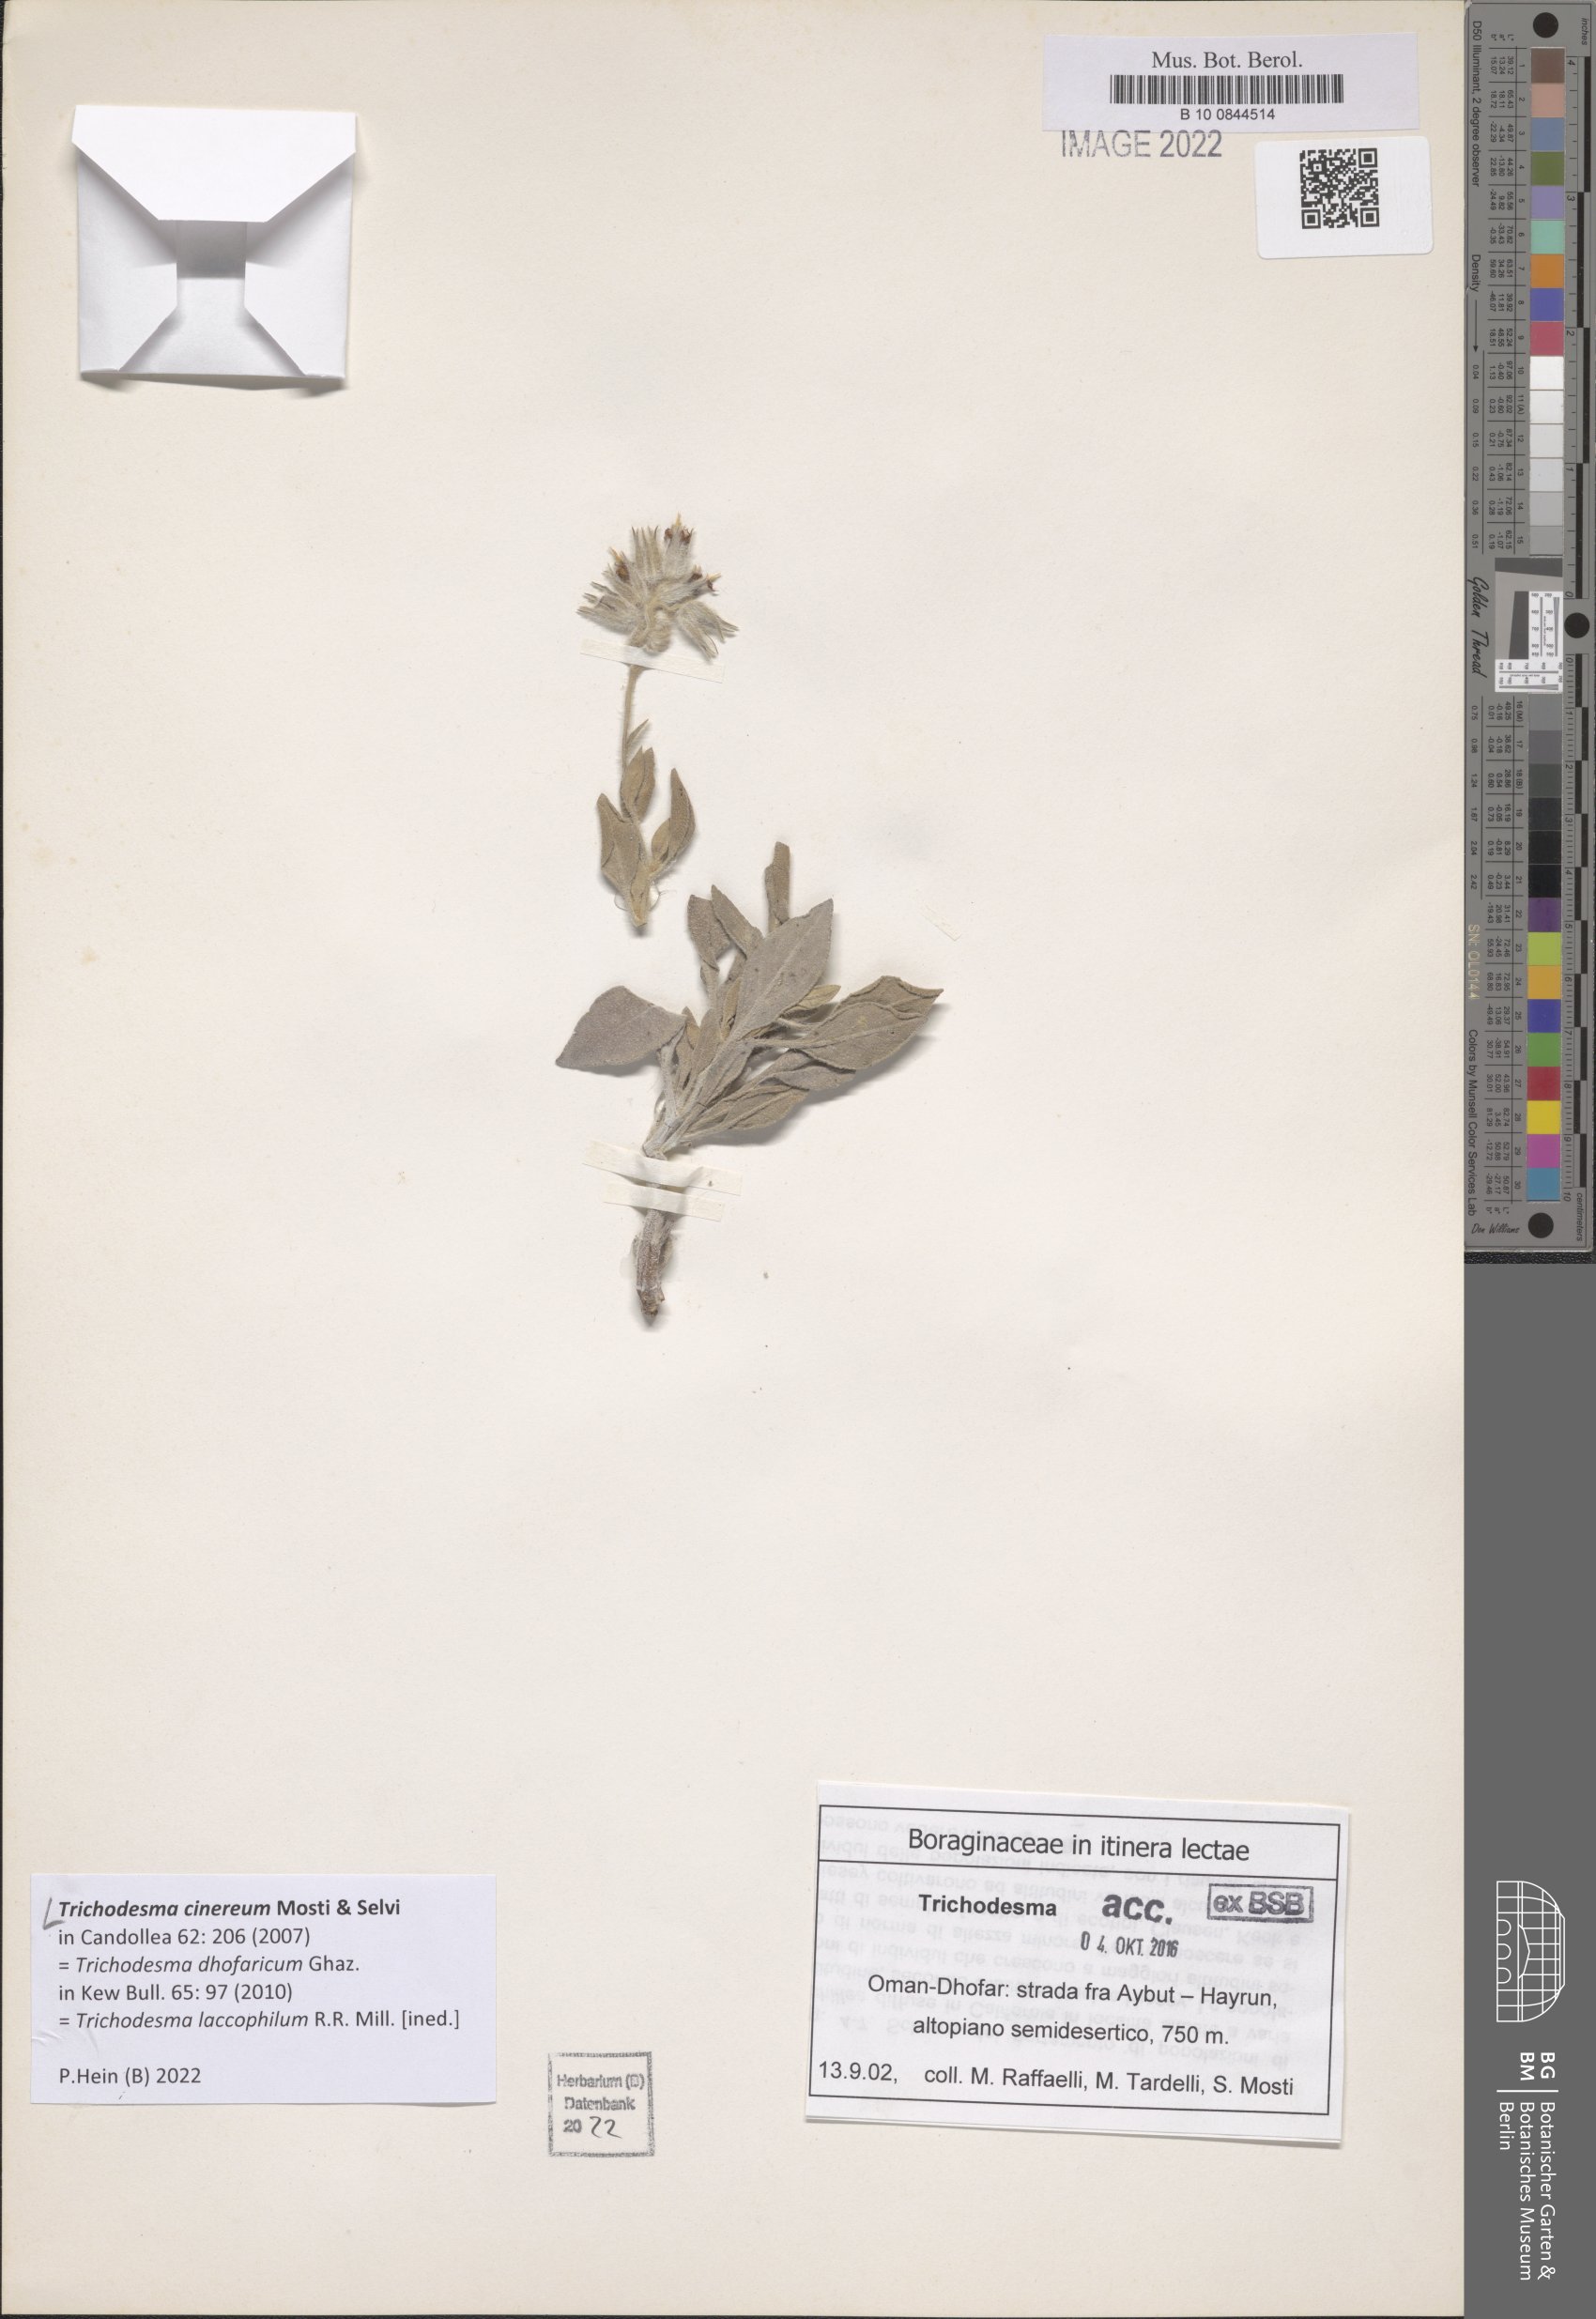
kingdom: Plantae
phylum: Tracheophyta
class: Magnoliopsida
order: Boraginales
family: Boraginaceae
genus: Trichodesma
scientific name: Trichodesma cinereum
